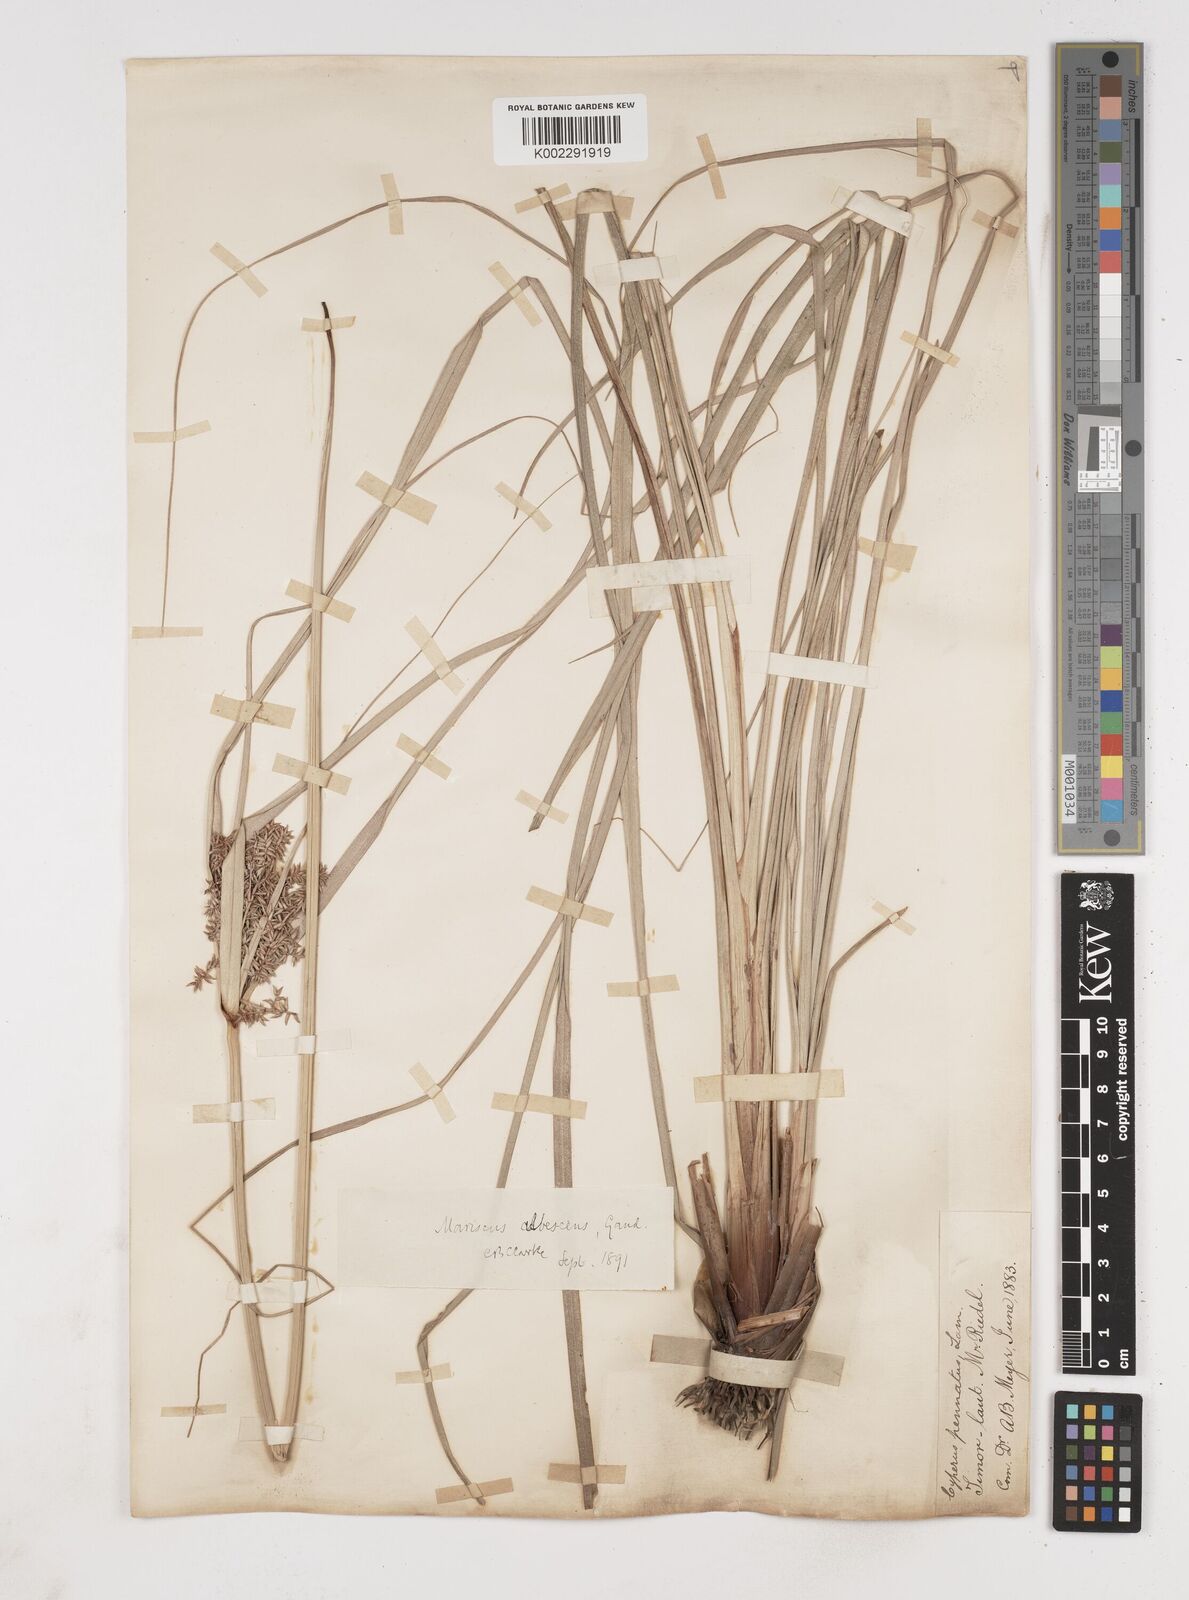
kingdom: Plantae
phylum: Tracheophyta
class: Liliopsida
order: Poales
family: Cyperaceae
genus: Cyperus
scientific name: Cyperus javanicus
